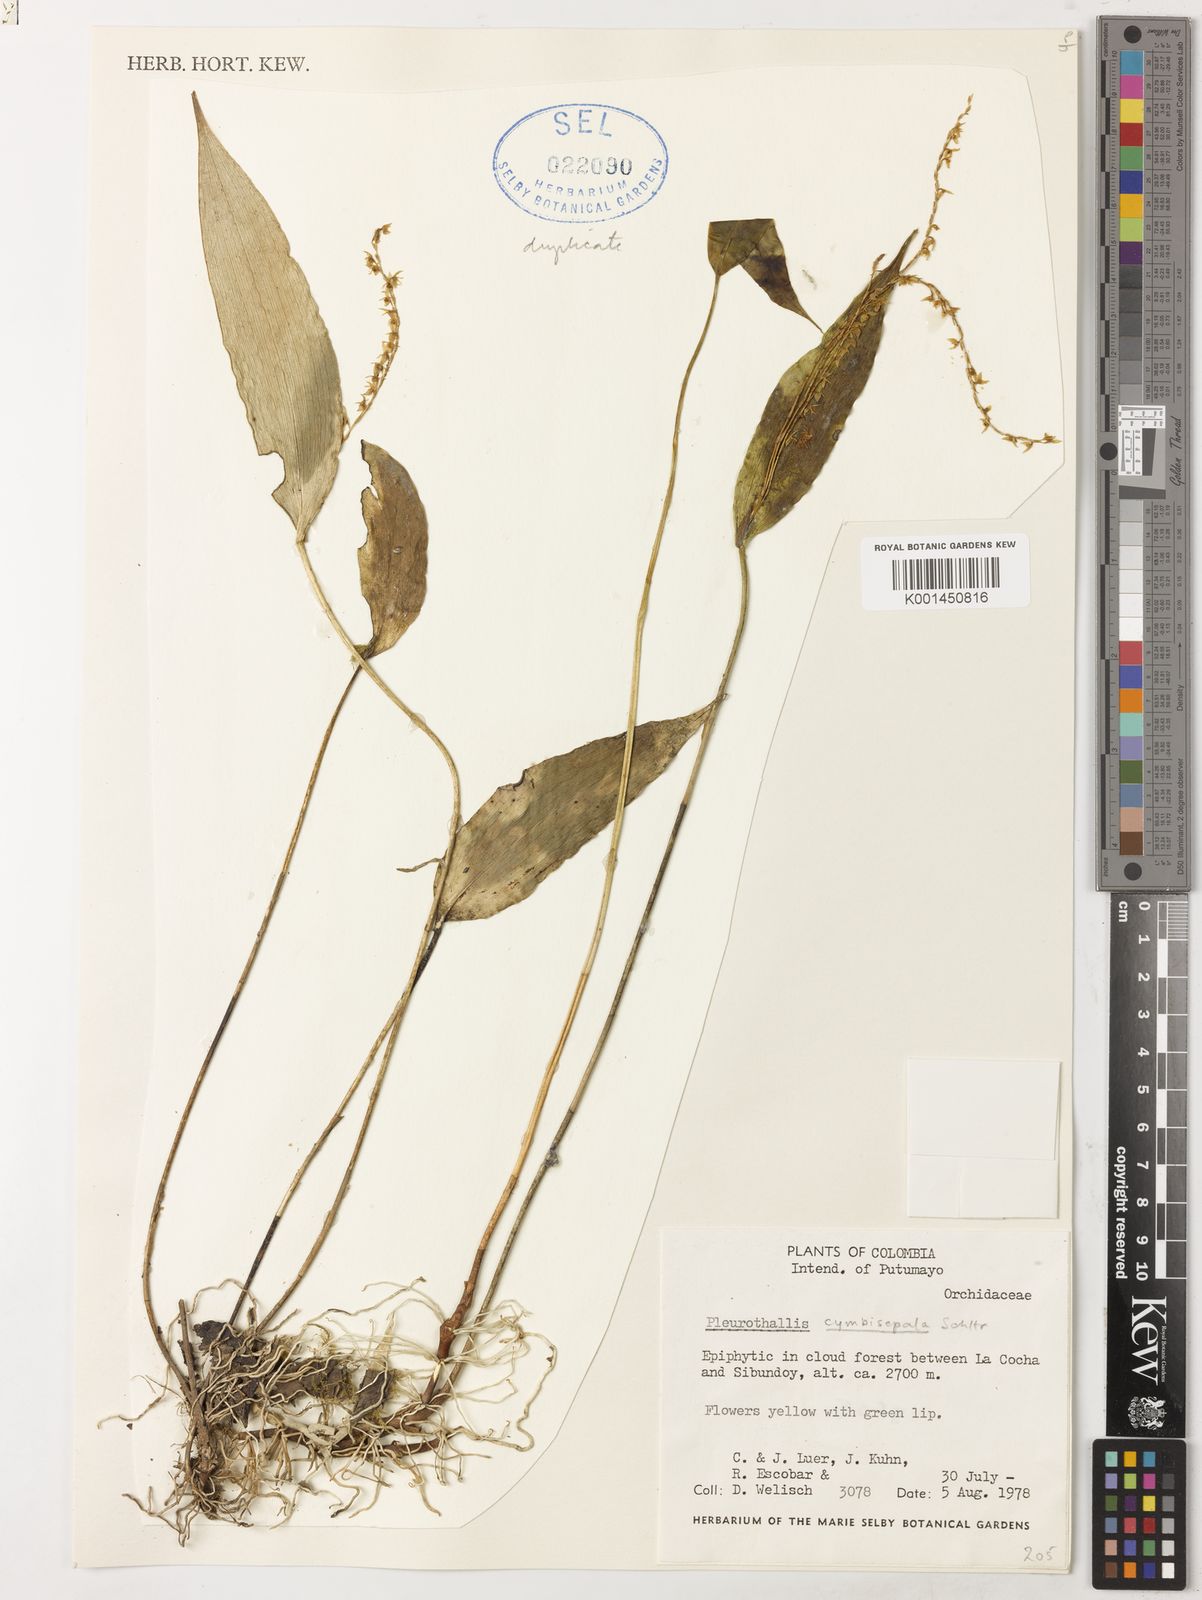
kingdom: Plantae
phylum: Tracheophyta
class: Liliopsida
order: Asparagales
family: Orchidaceae
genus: Pleurothallis
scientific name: Pleurothallis cymbisepala
